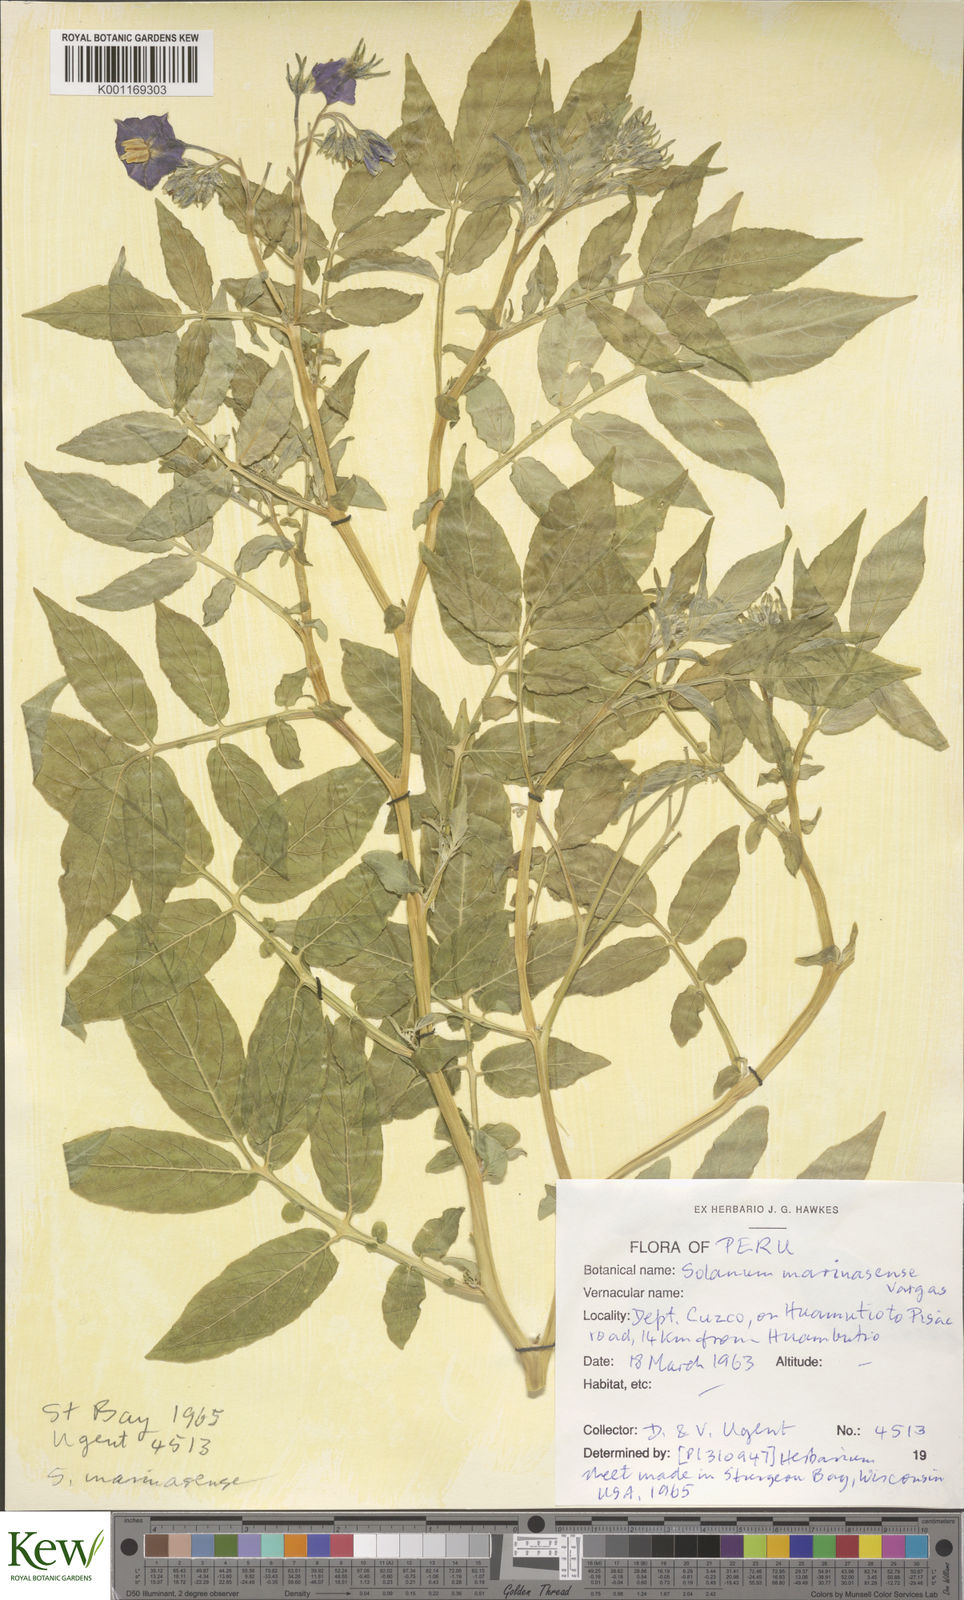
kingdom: Plantae
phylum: Tracheophyta
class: Magnoliopsida
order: Solanales
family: Solanaceae
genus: Solanum
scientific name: Solanum candolleanum
